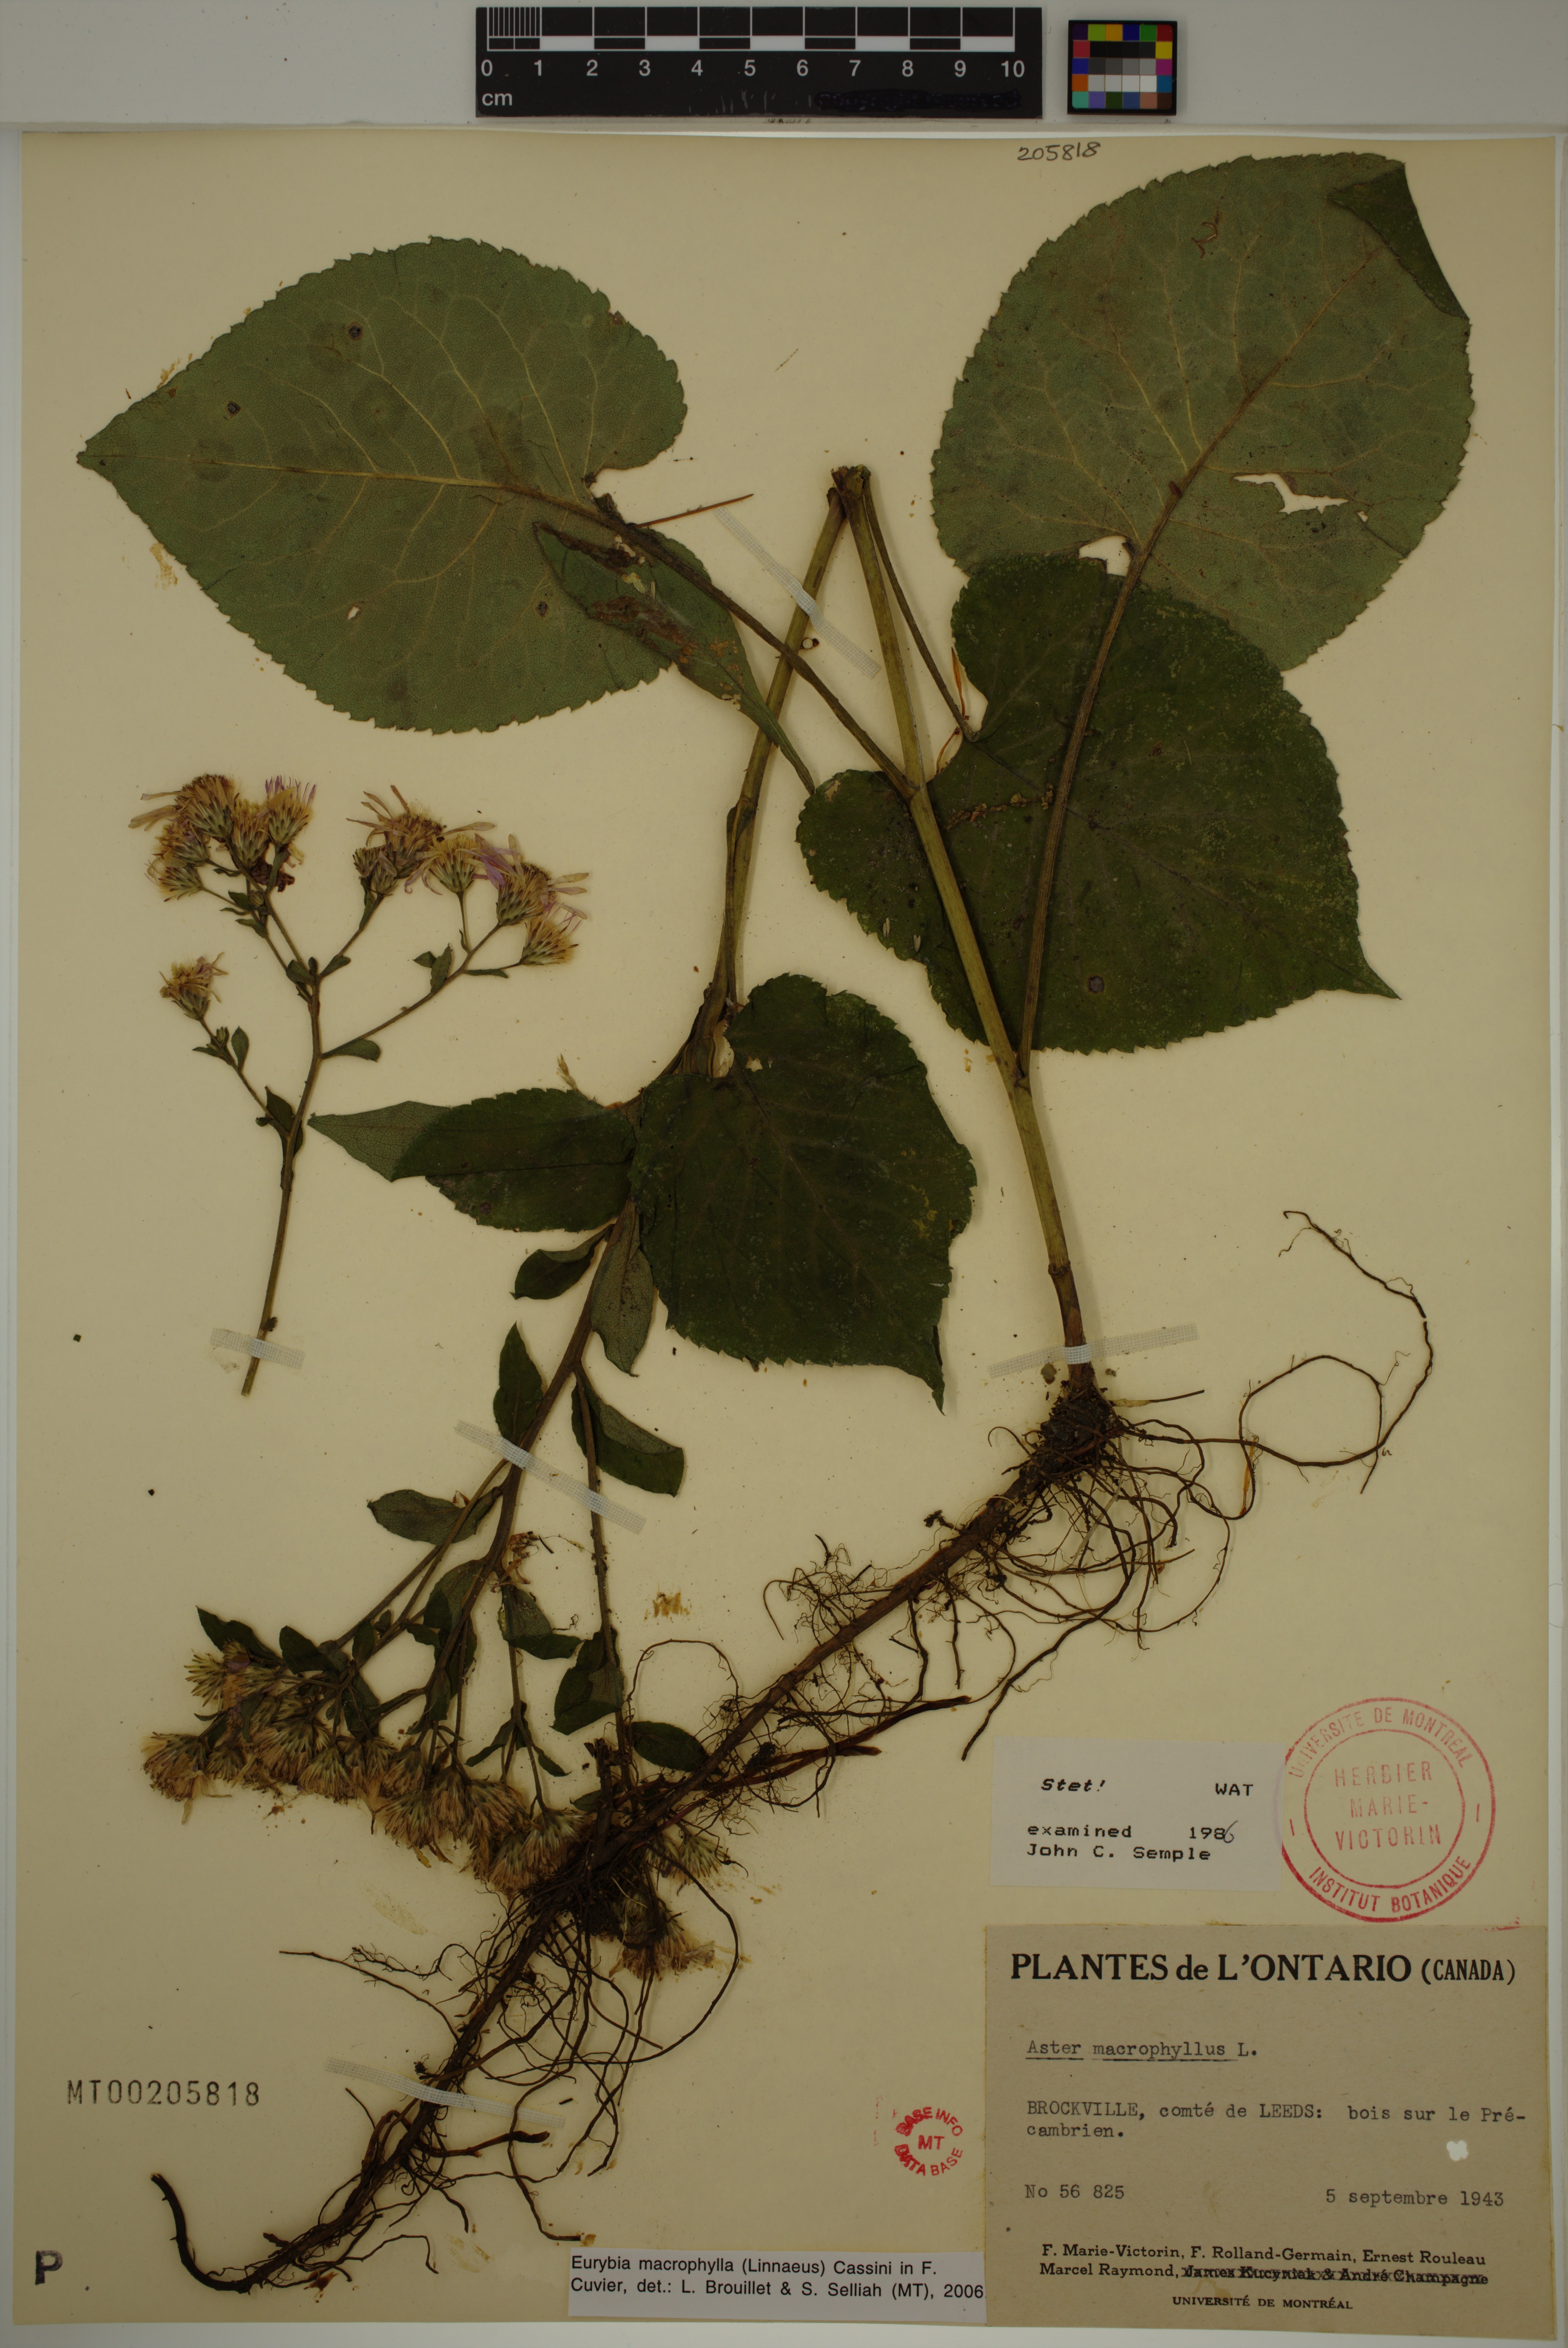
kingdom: Plantae
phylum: Tracheophyta
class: Magnoliopsida
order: Asterales
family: Asteraceae
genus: Eurybia
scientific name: Eurybia macrophylla
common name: Big-leaved aster
